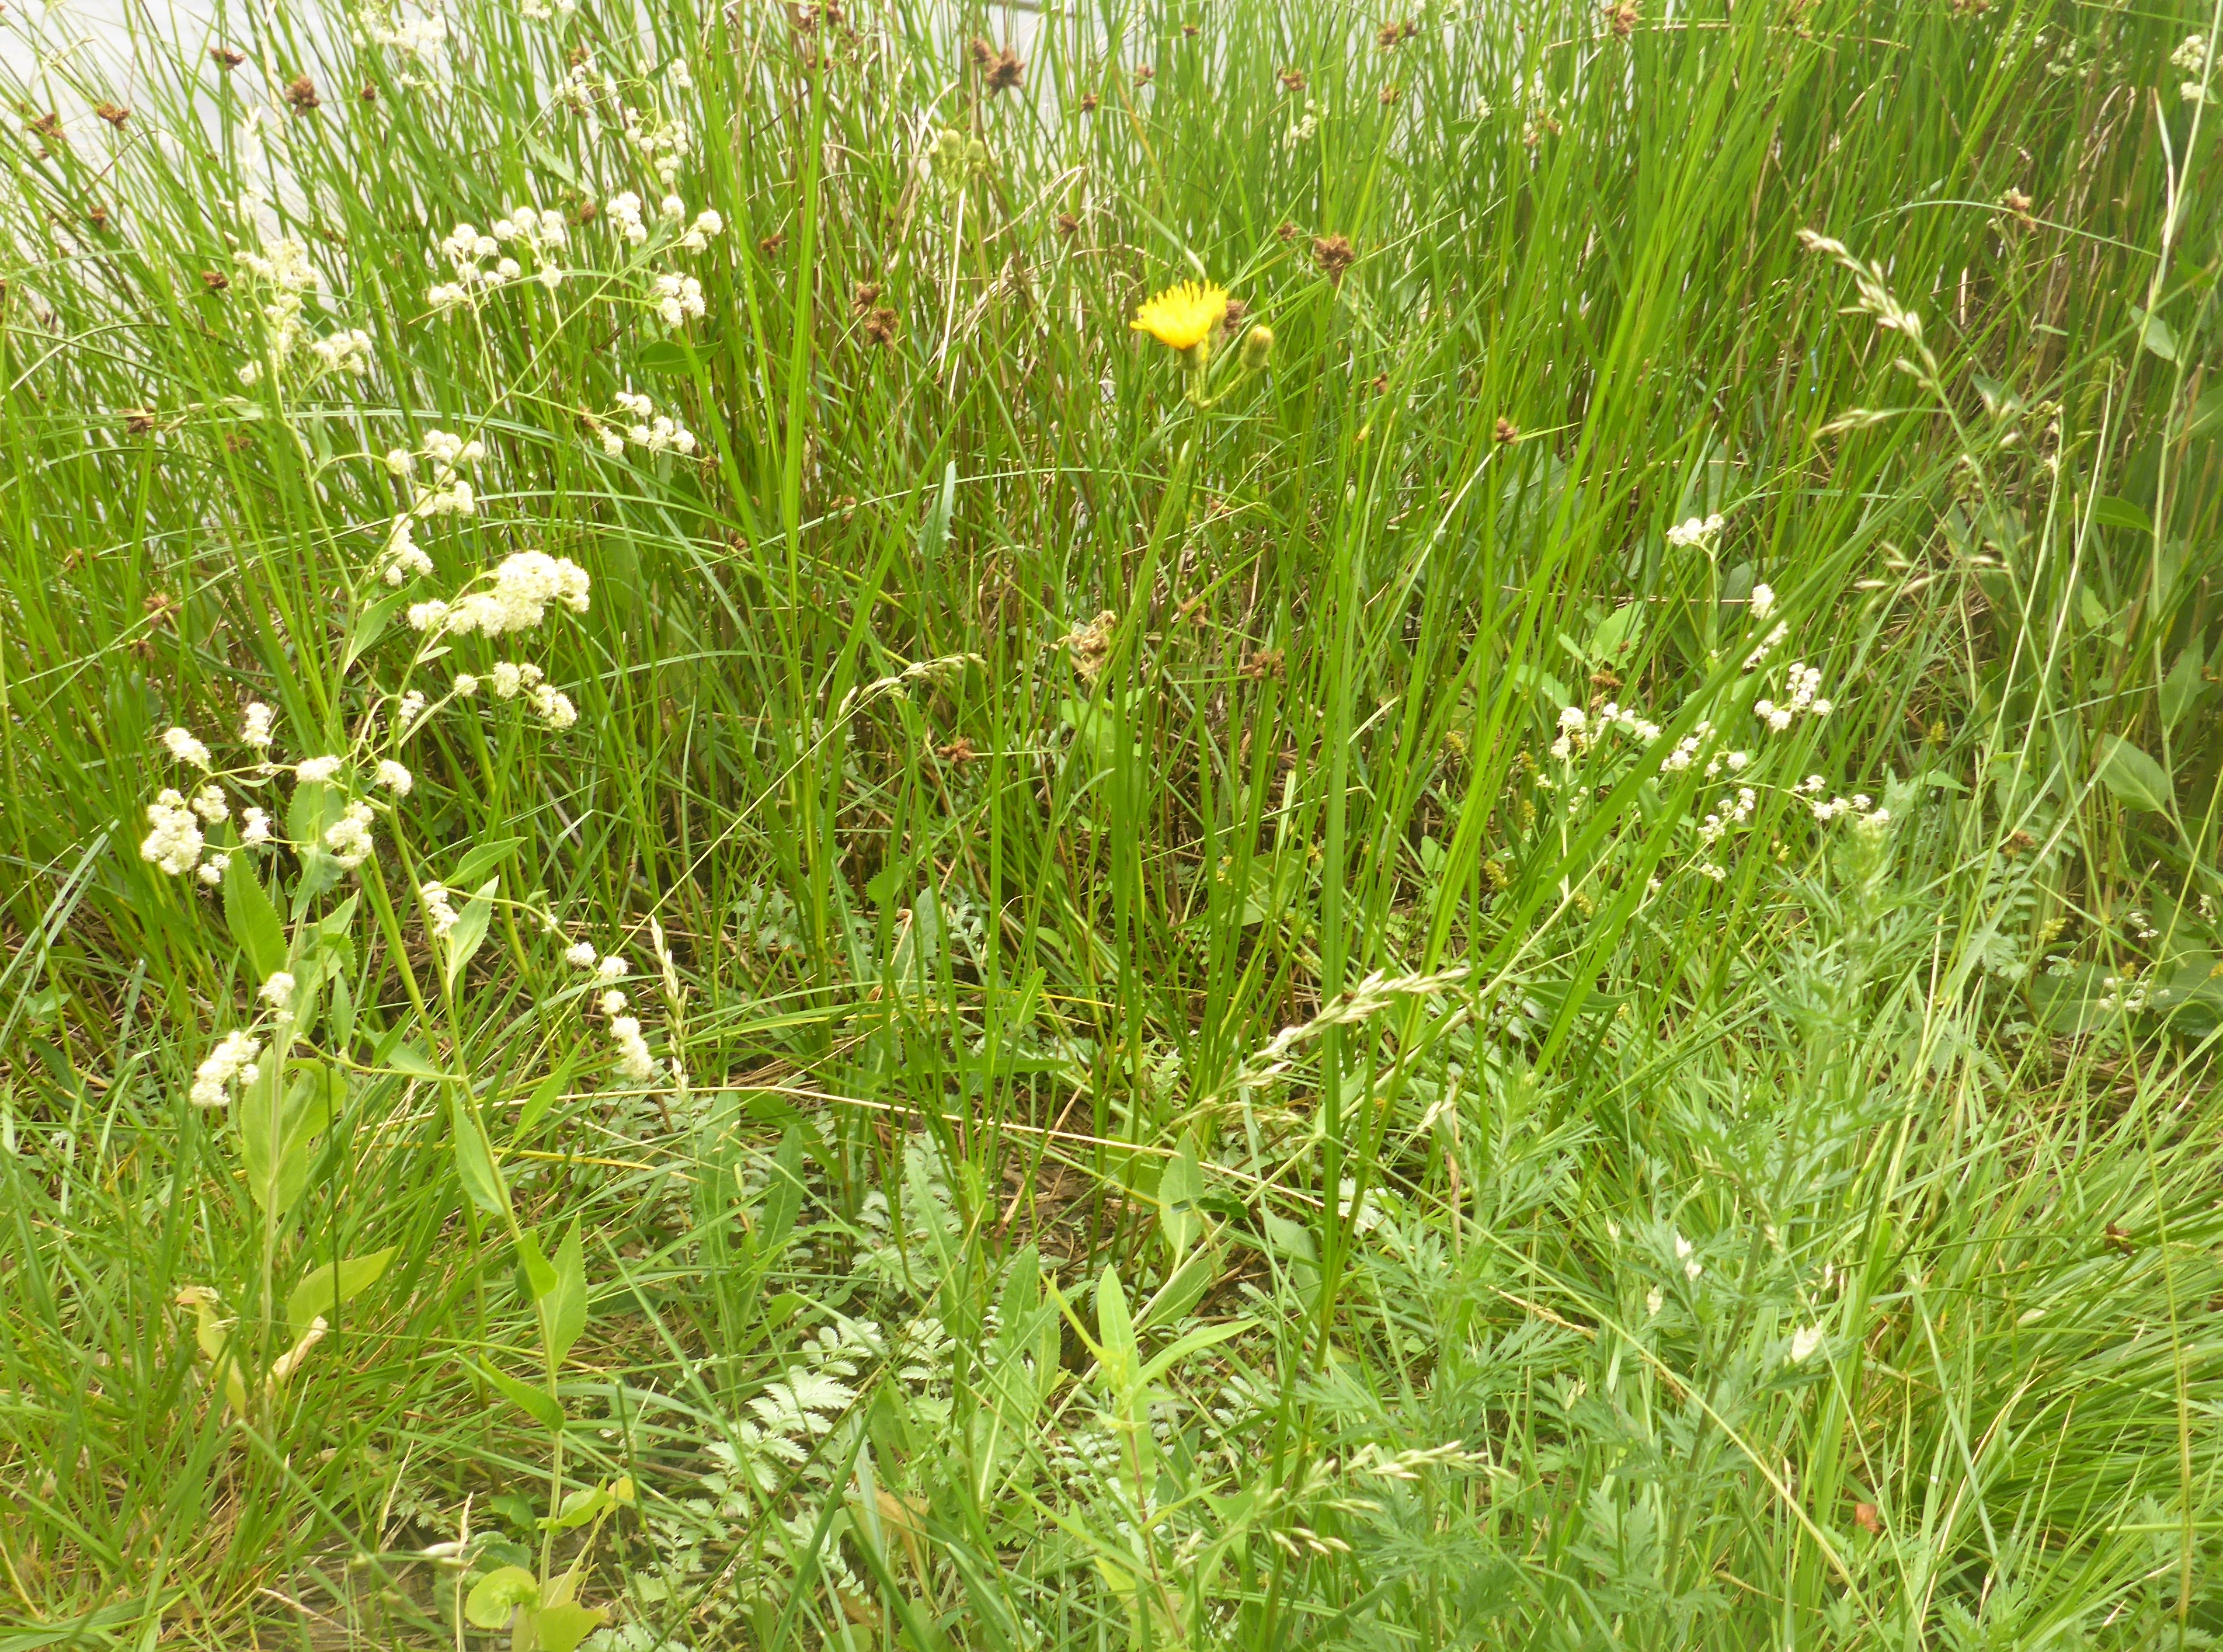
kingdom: Plantae
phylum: Tracheophyta
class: Magnoliopsida
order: Asterales
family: Asteraceae
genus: Sonchus
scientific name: Sonchus arvensis
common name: Ager-svinemælk
